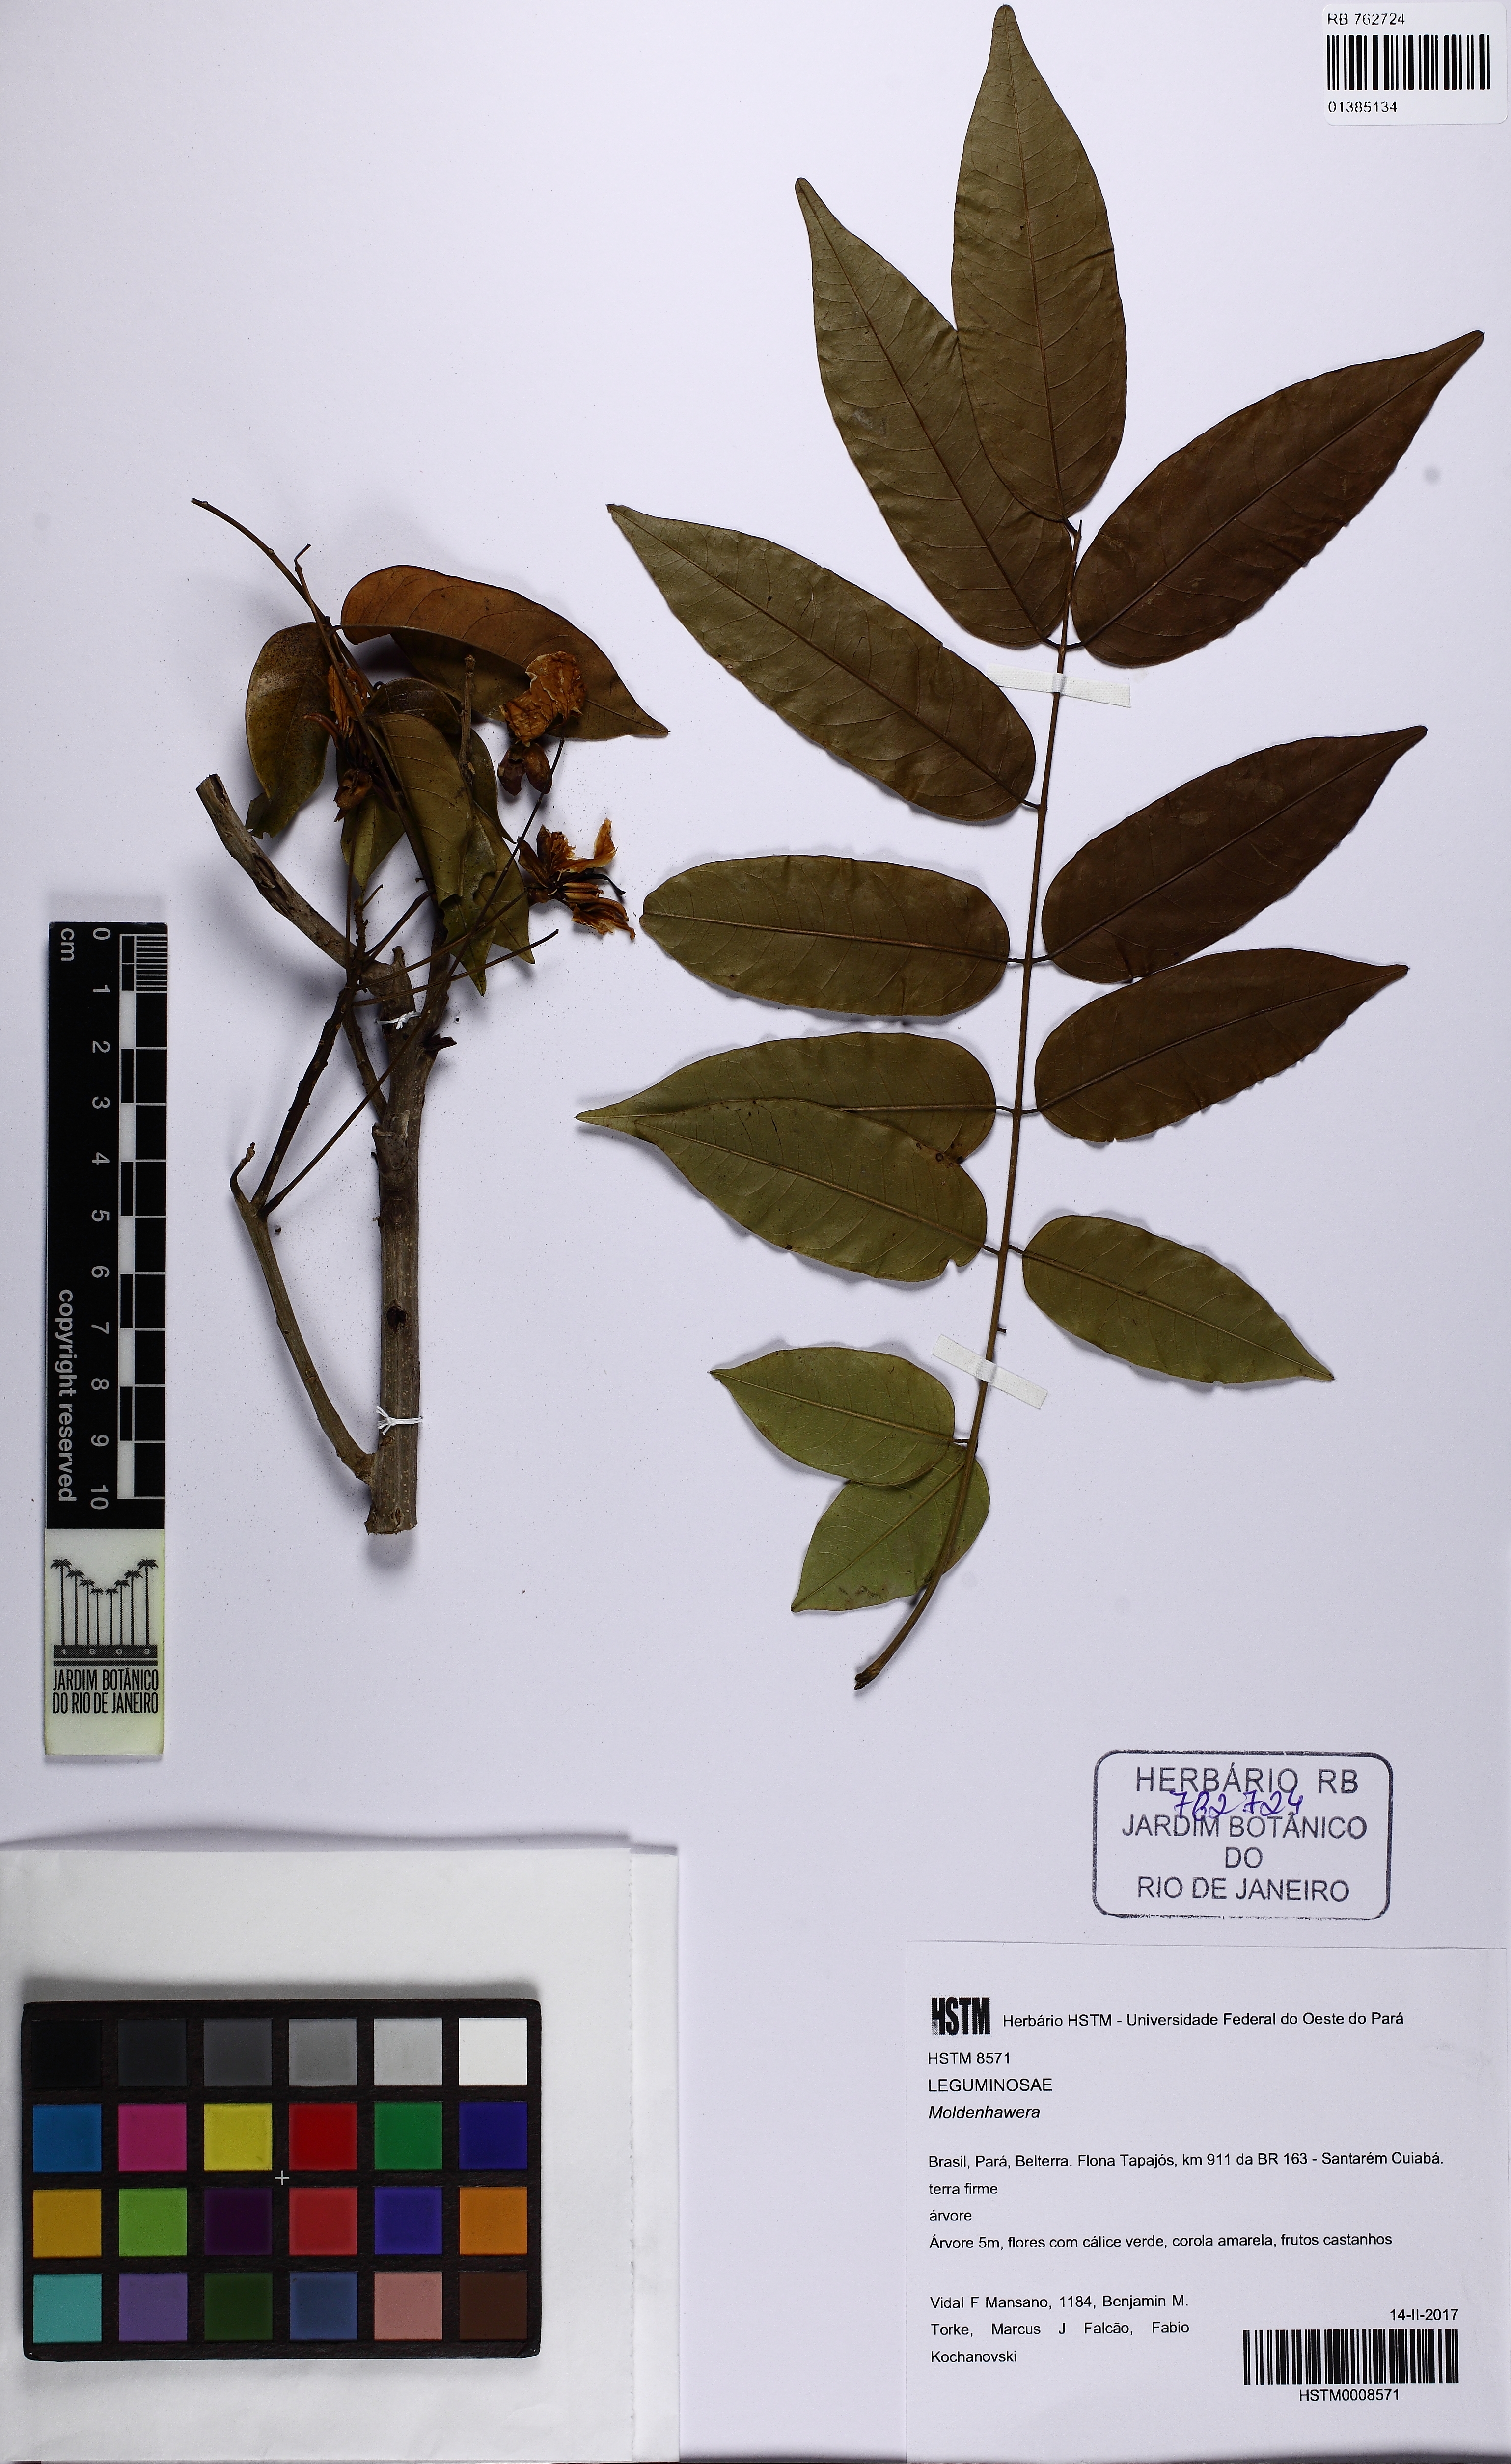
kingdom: Plantae
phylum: Tracheophyta
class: Magnoliopsida
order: Fabales
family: Fabaceae
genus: Moldenhawera
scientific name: Moldenhawera
